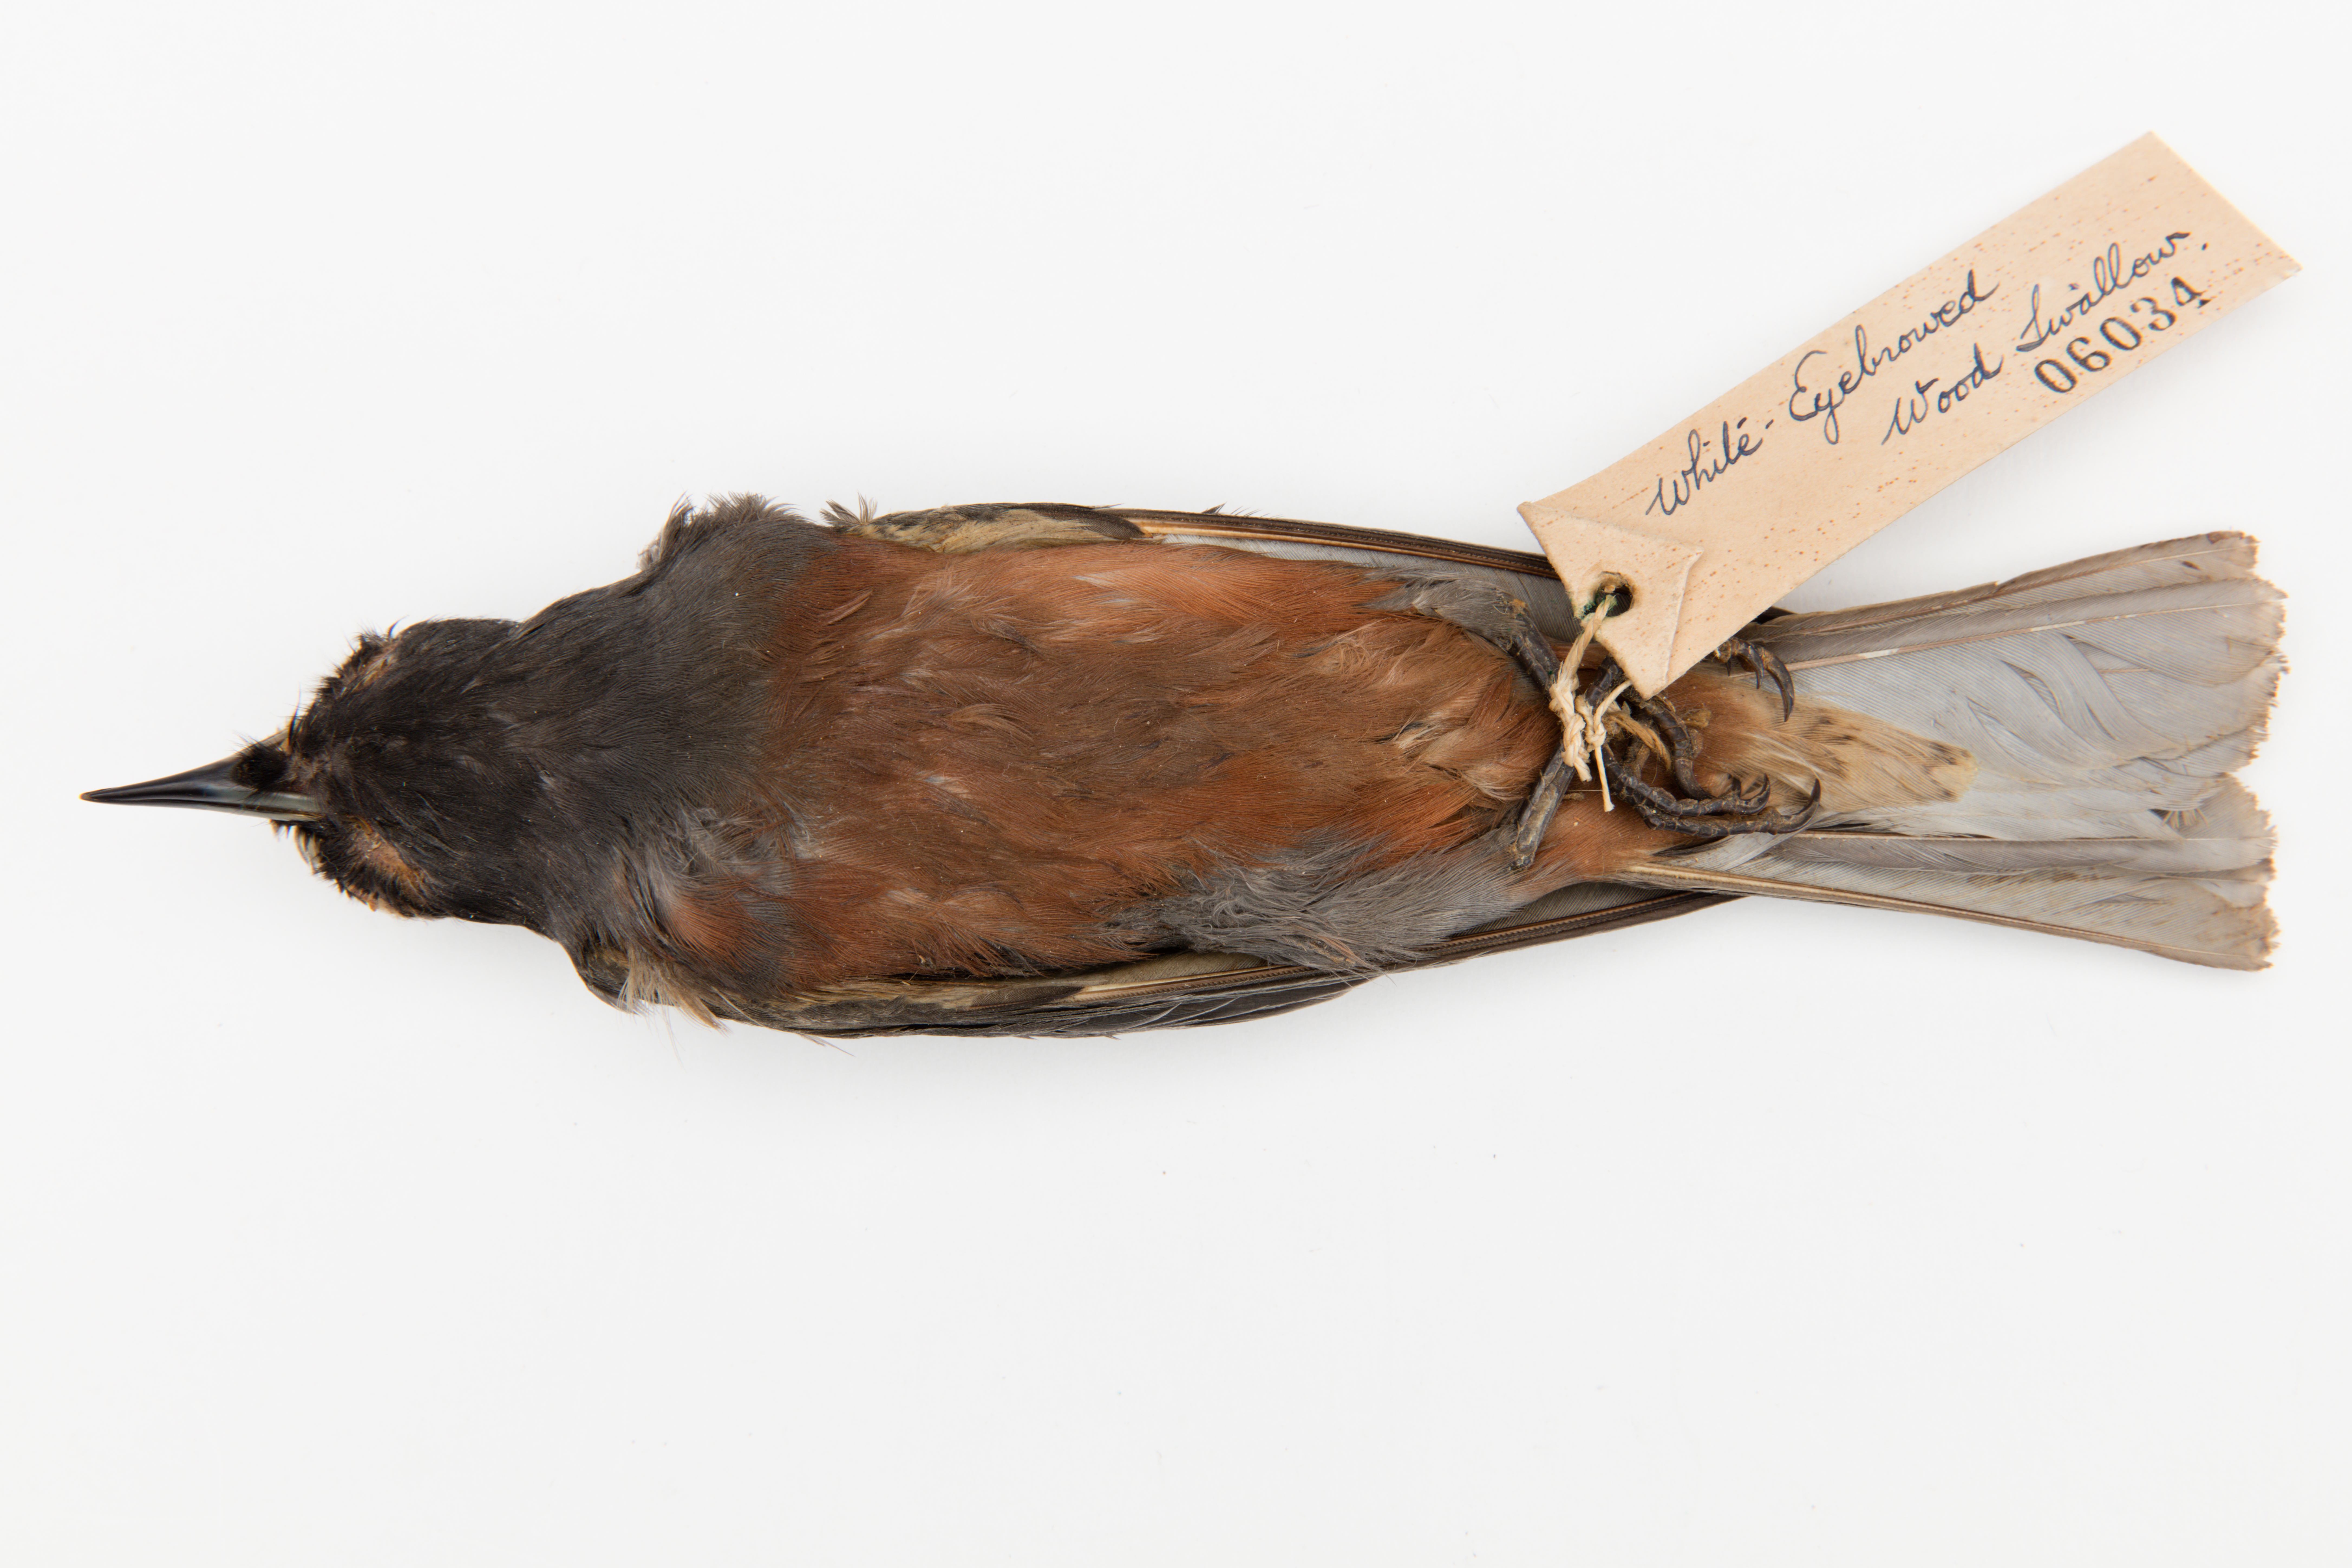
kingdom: Animalia
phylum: Chordata
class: Aves
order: Passeriformes
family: Artamidae
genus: Artamus
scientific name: Artamus superciliosus
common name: White-browed woodswallow
